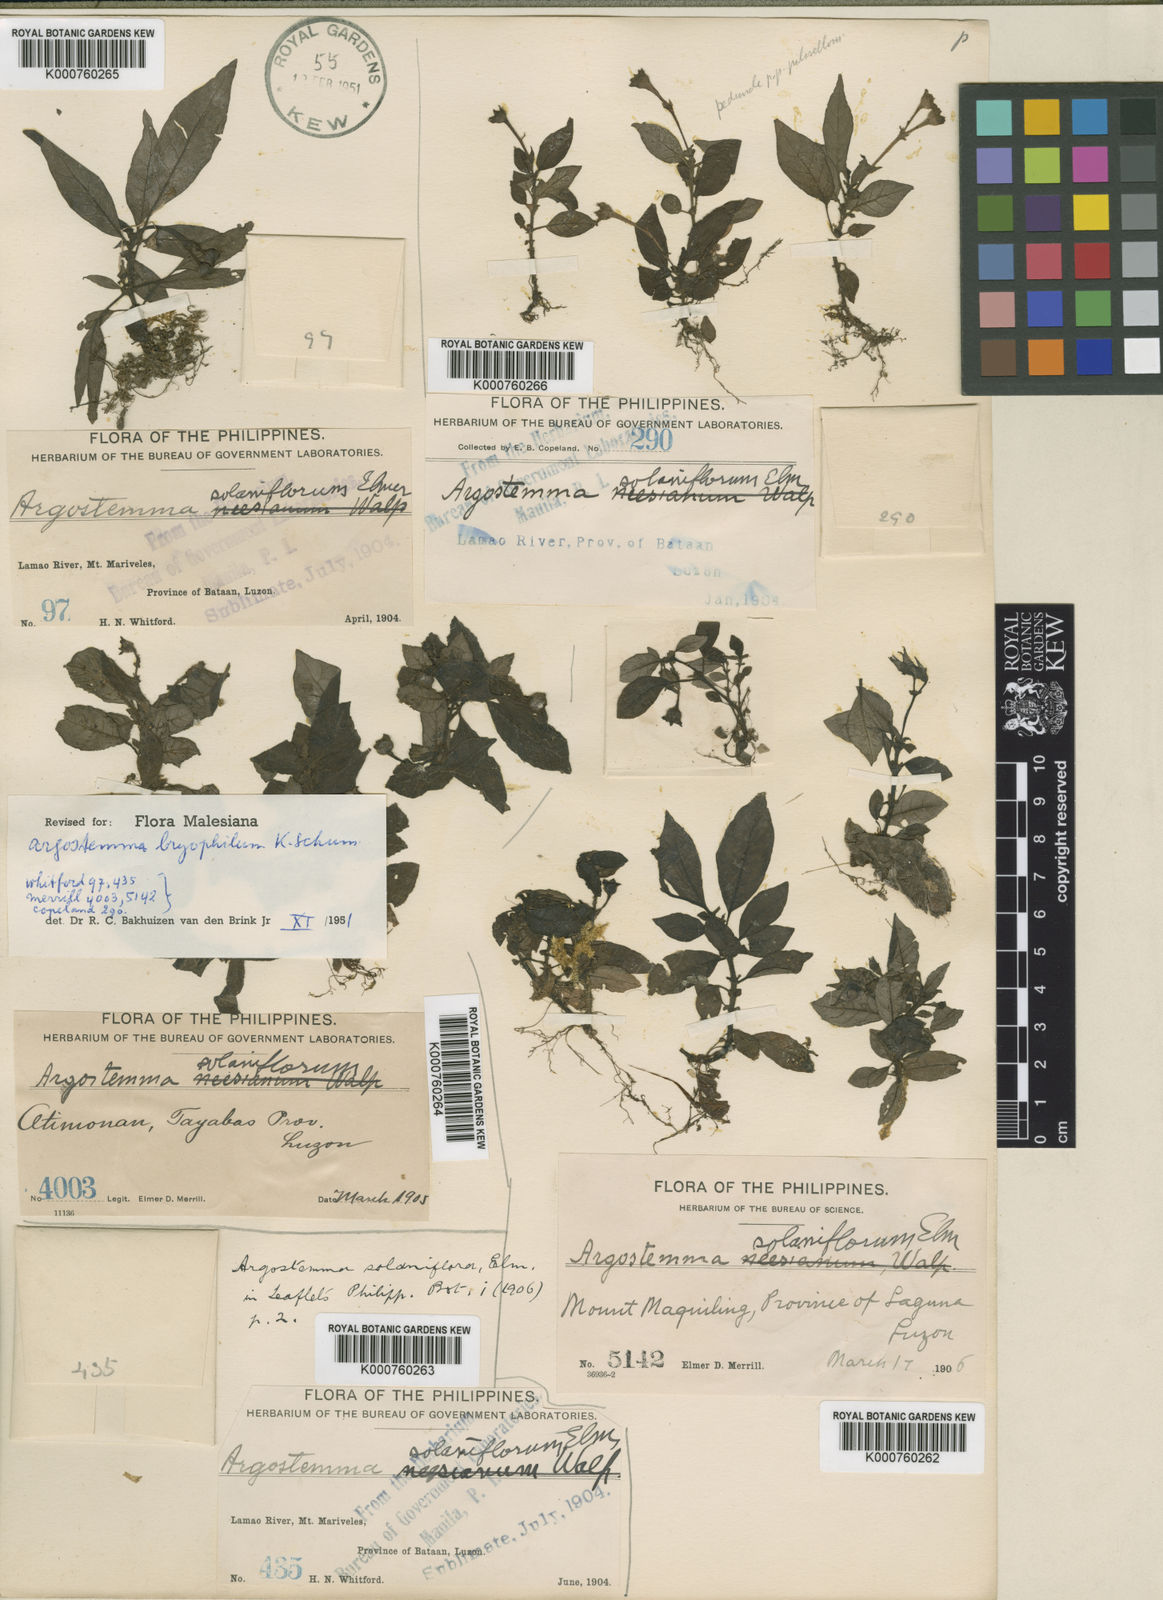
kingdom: Plantae
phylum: Tracheophyta
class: Magnoliopsida
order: Gentianales
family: Rubiaceae
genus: Argostemma
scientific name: Argostemma bryophilum
